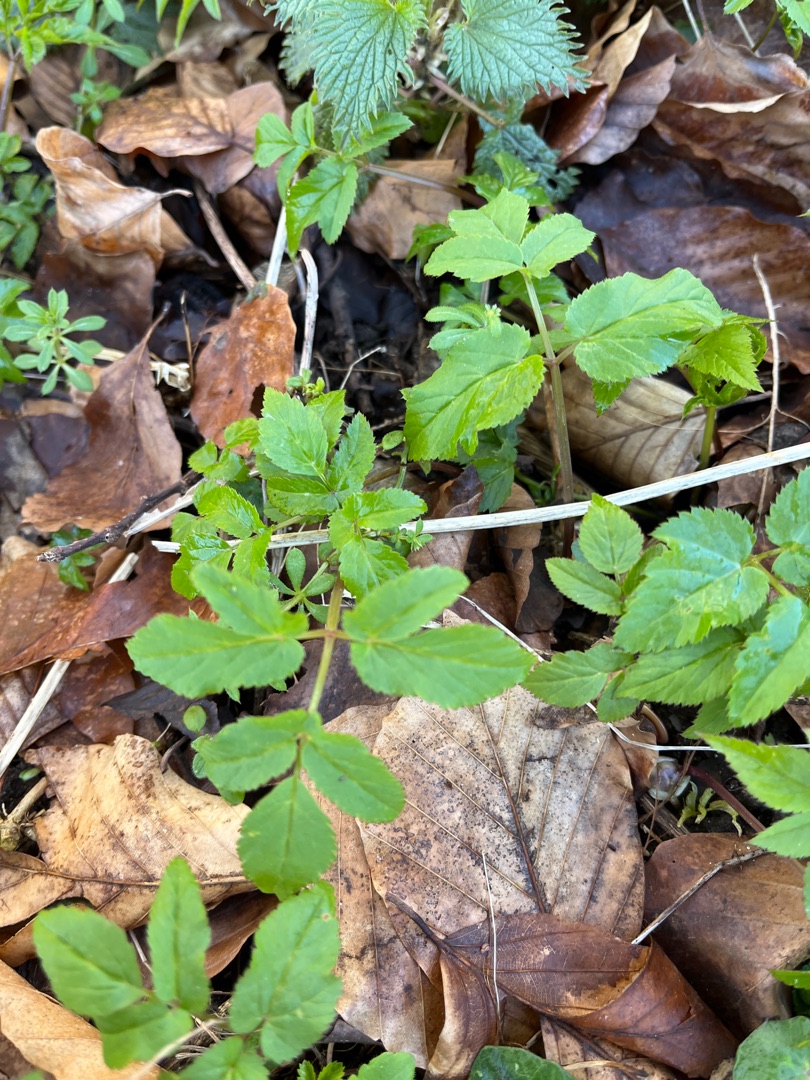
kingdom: Plantae
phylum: Tracheophyta
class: Magnoliopsida
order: Apiales
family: Apiaceae
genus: Aegopodium
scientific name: Aegopodium podagraria
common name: Skvalderkål
